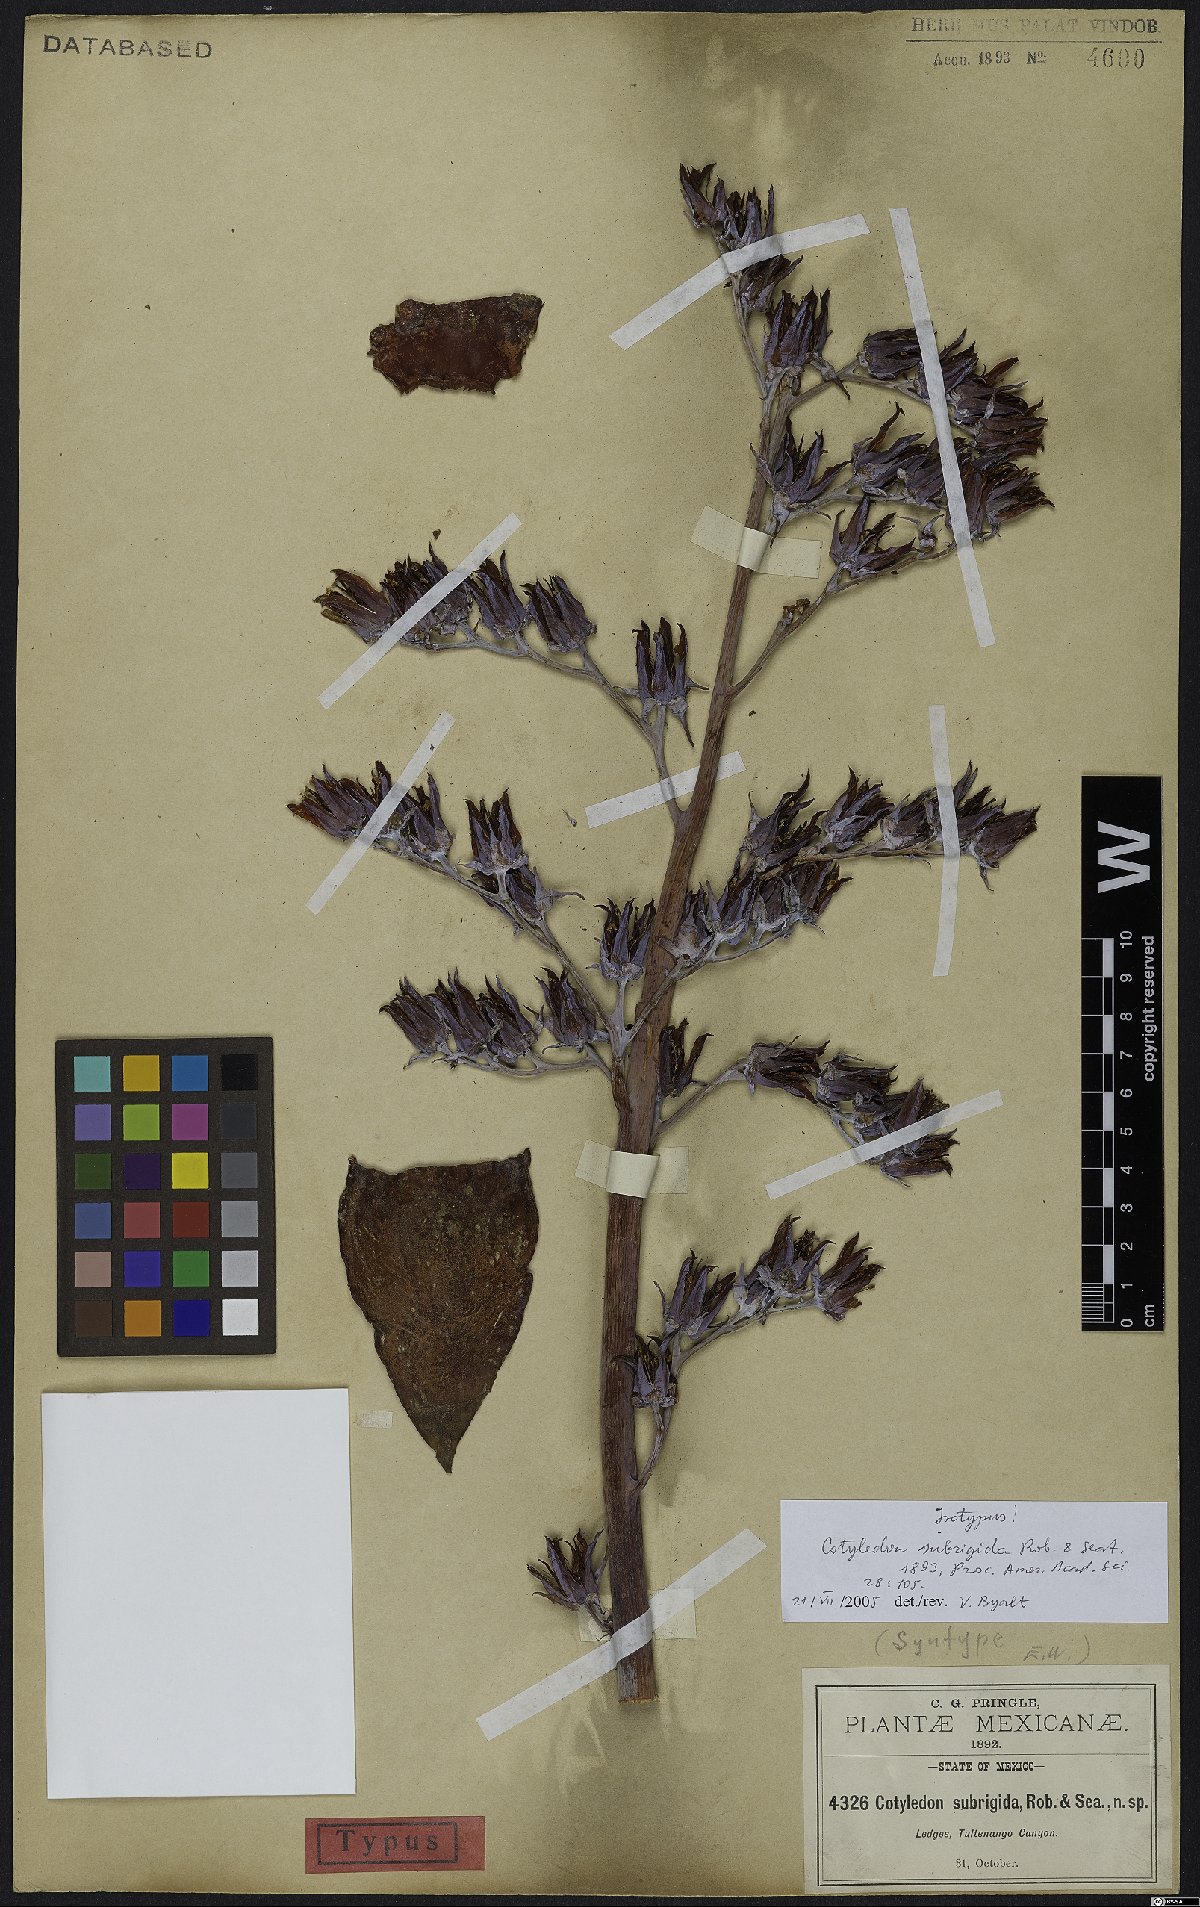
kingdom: Plantae
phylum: Tracheophyta
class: Magnoliopsida
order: Saxifragales
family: Crassulaceae
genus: Echeveria
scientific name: Echeveria subrigida
